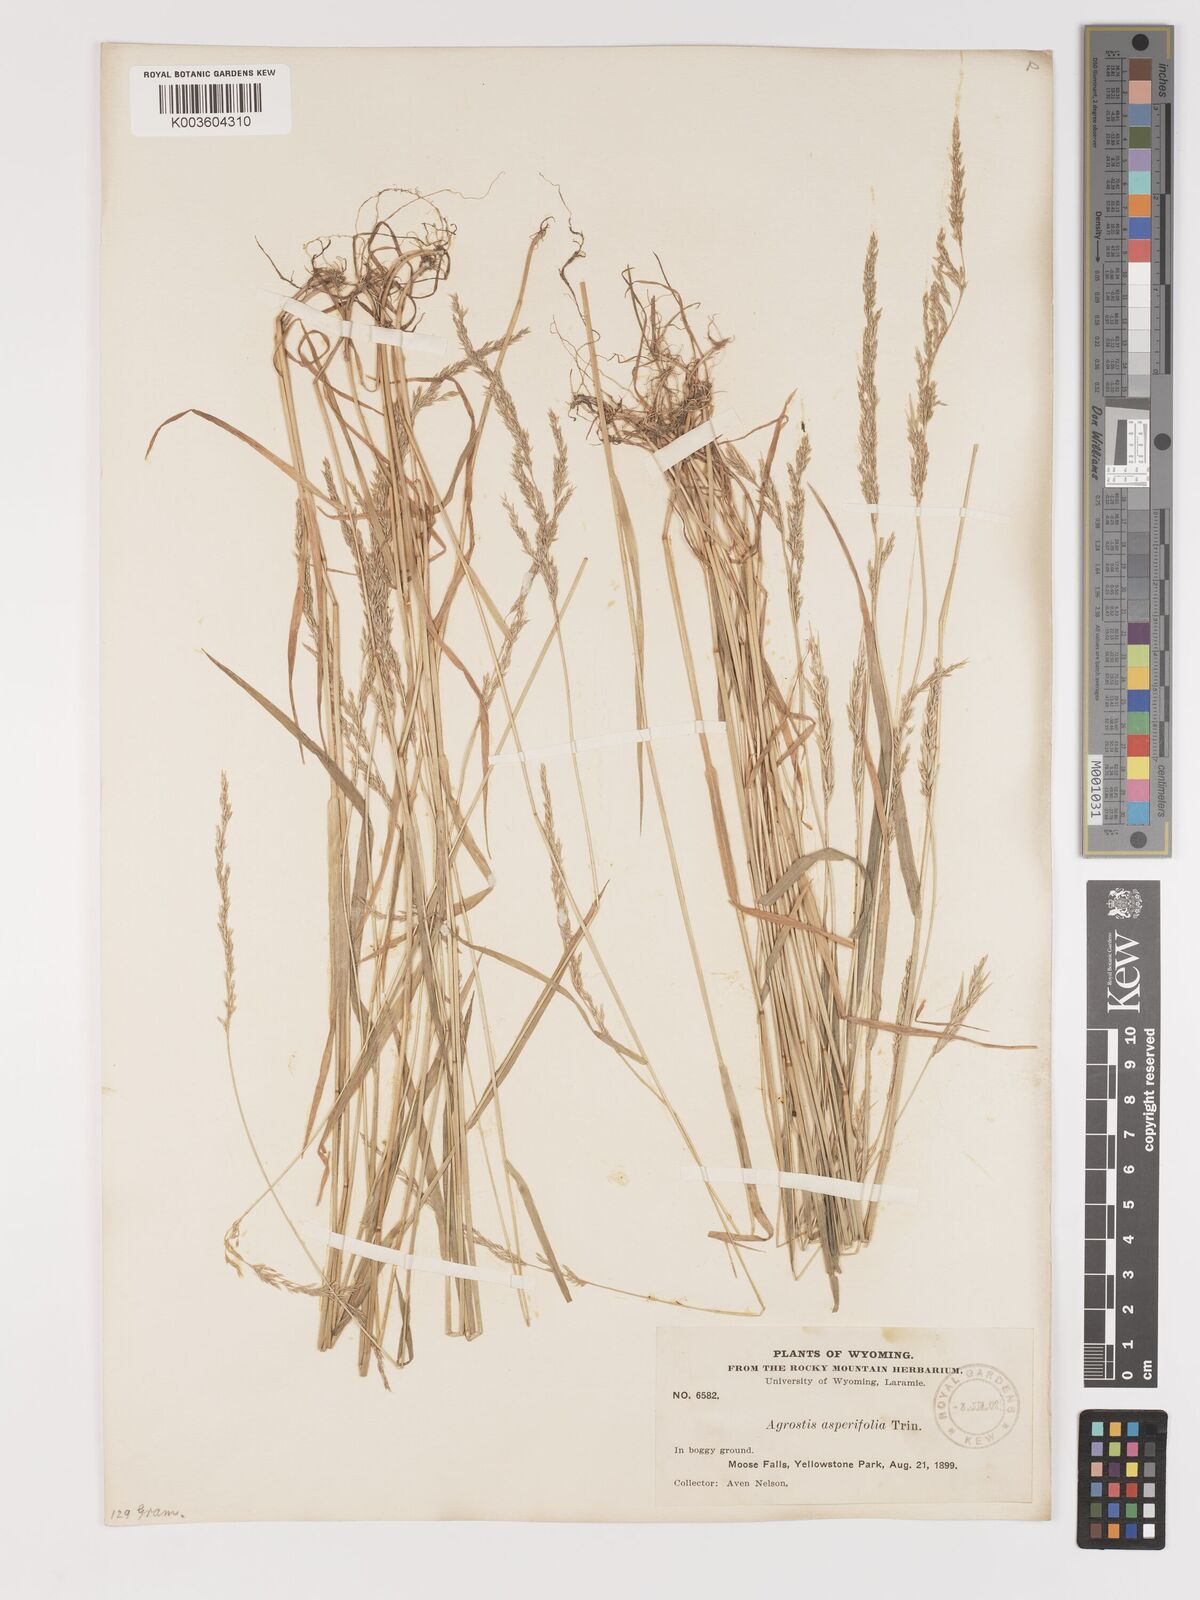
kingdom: Plantae
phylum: Tracheophyta
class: Liliopsida
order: Poales
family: Poaceae
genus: Agrostis
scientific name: Agrostis exarata
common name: Spike bent
